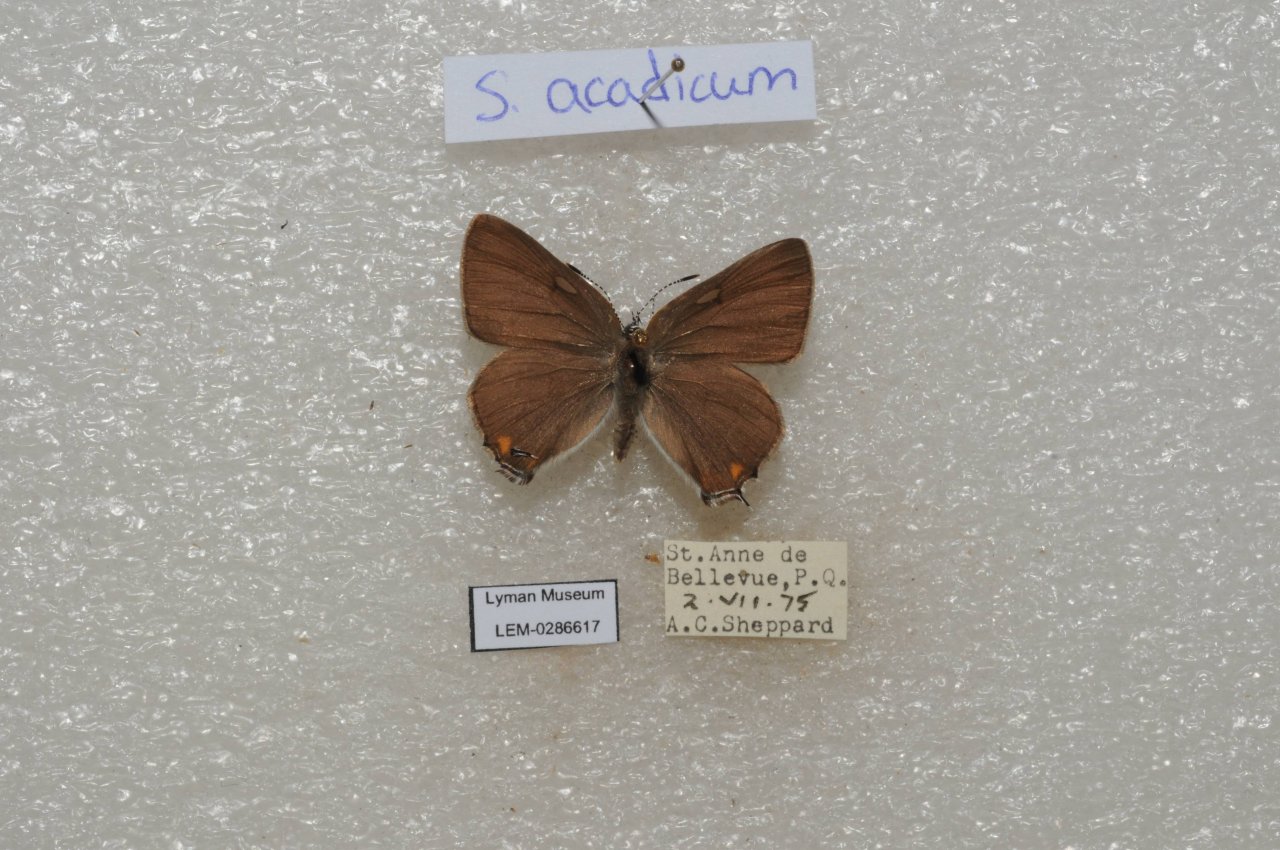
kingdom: Animalia
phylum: Arthropoda
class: Insecta
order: Lepidoptera
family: Lycaenidae
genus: Strymon
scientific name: Strymon acadica
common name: Acadian Hairstreak
